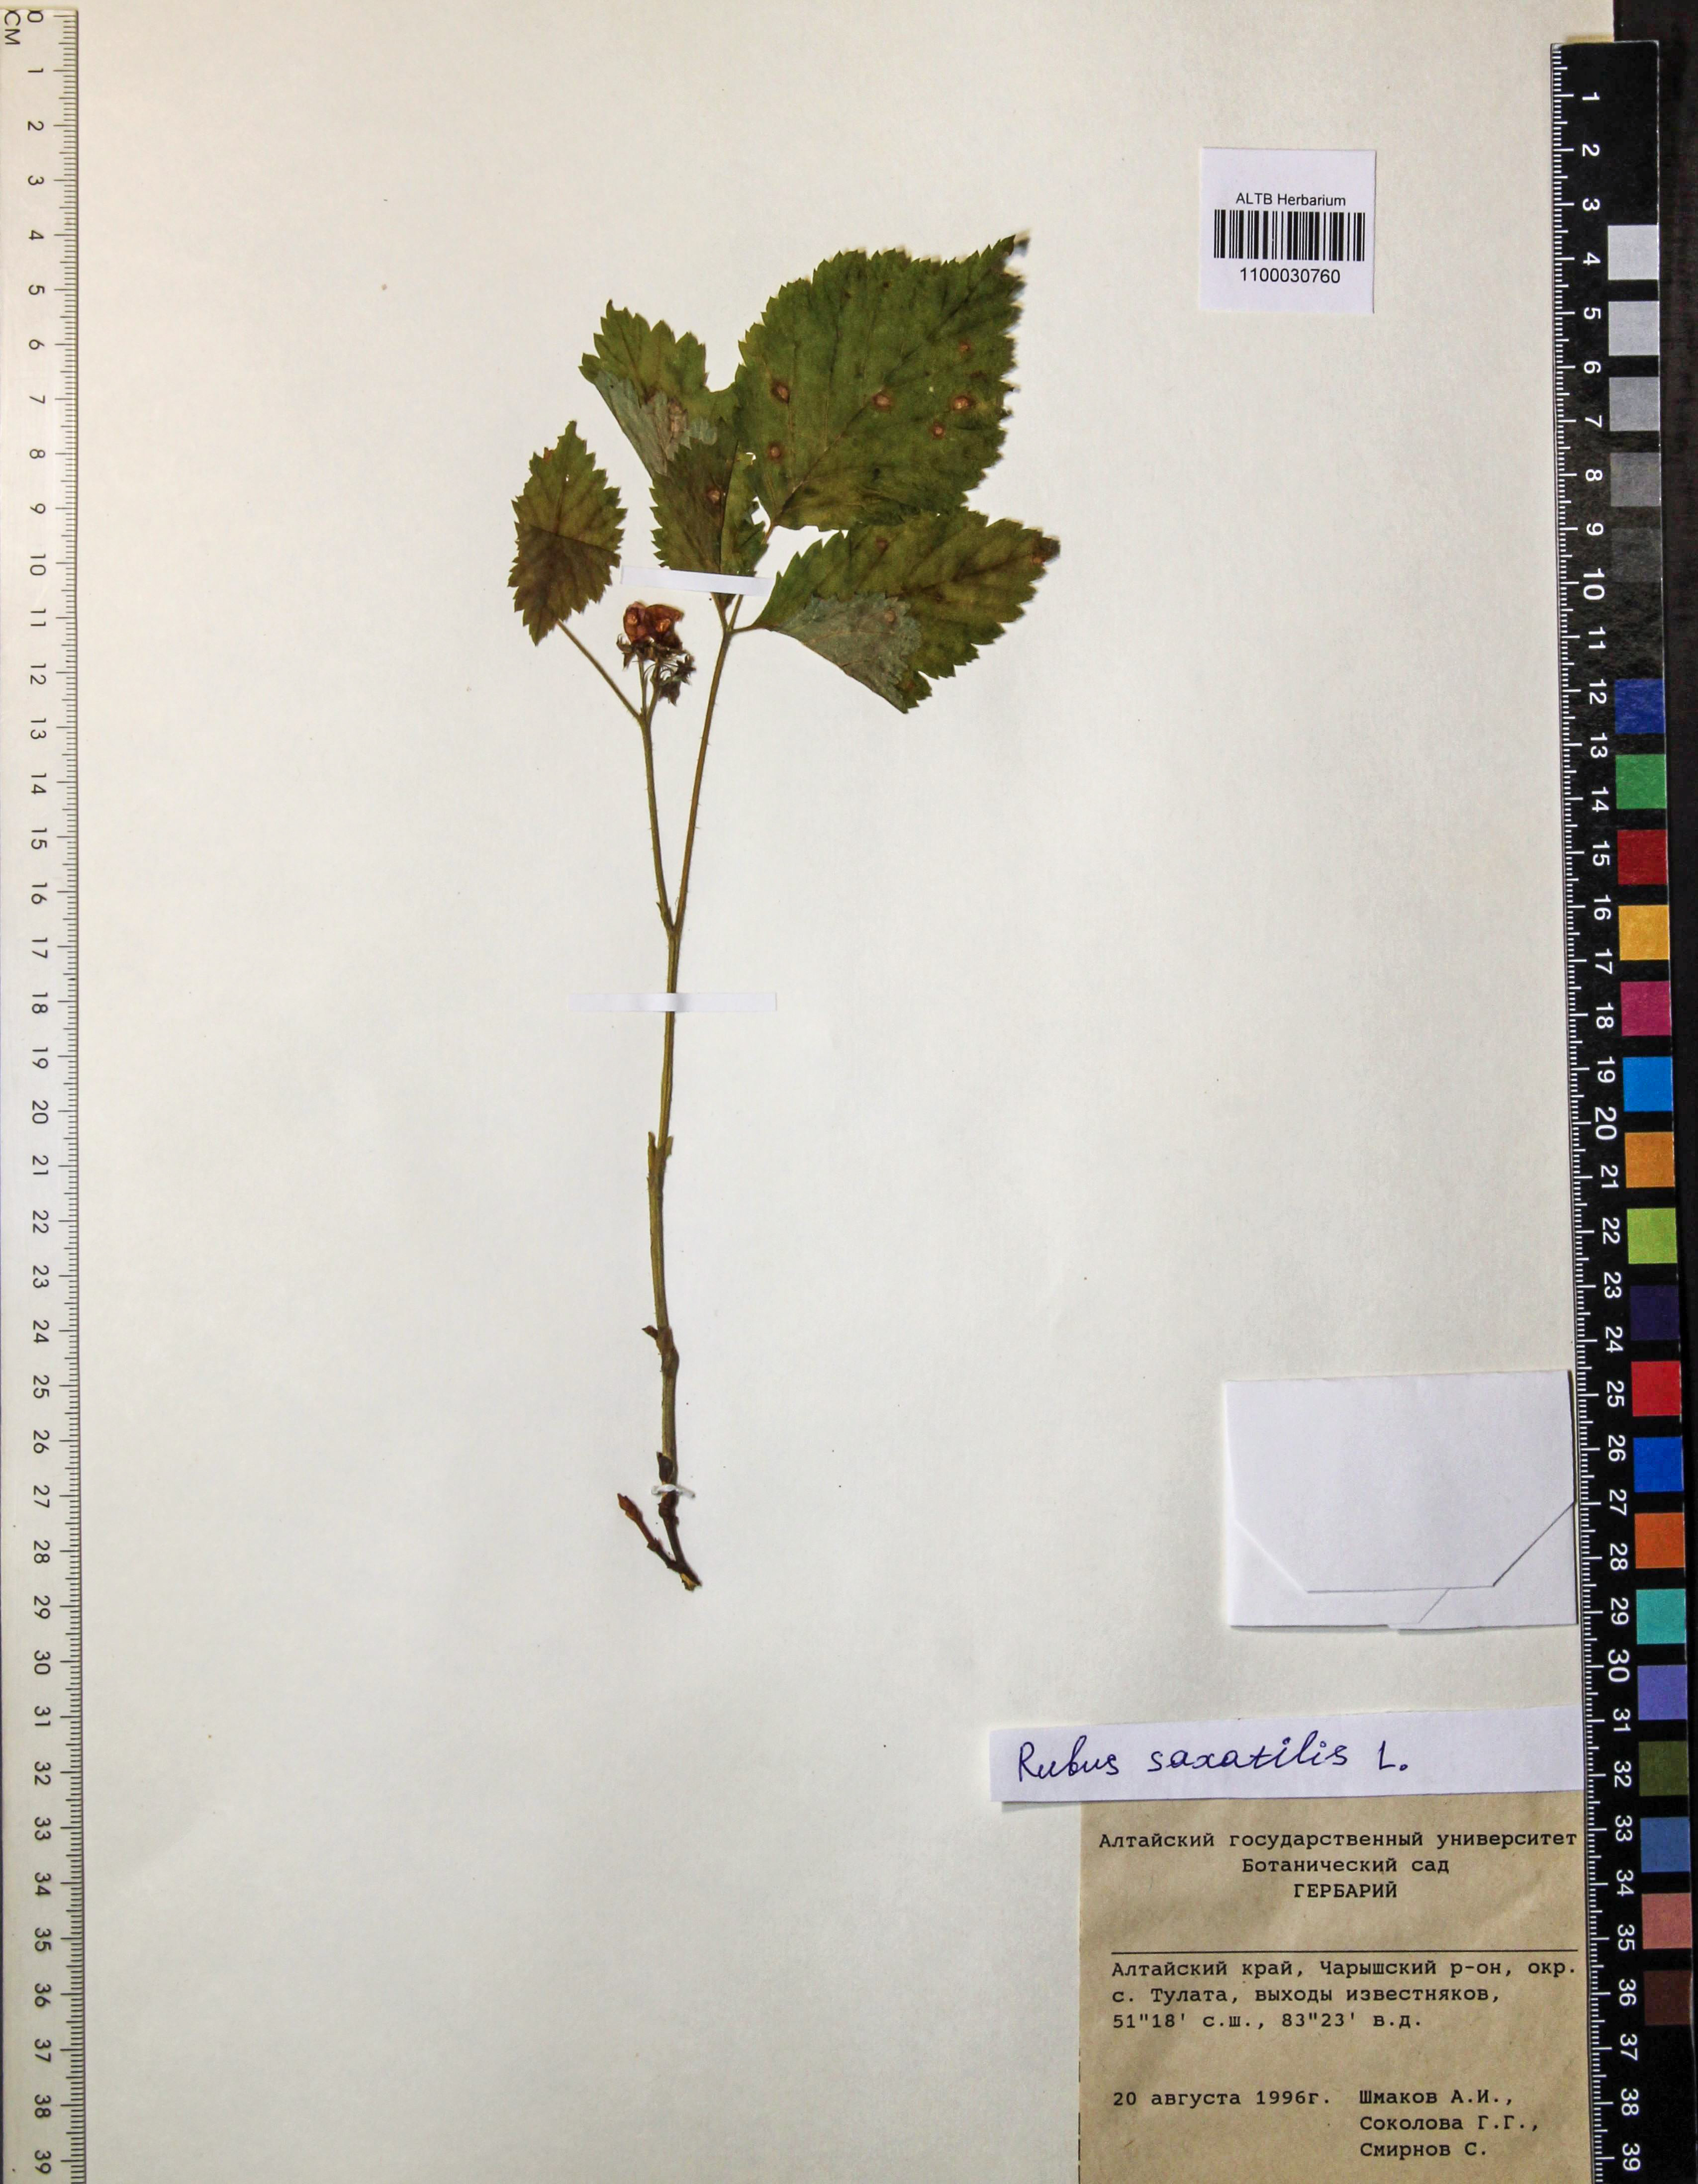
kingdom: Plantae
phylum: Tracheophyta
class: Magnoliopsida
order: Rosales
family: Rosaceae
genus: Rubus
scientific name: Rubus saxatilis
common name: Stone bramble
